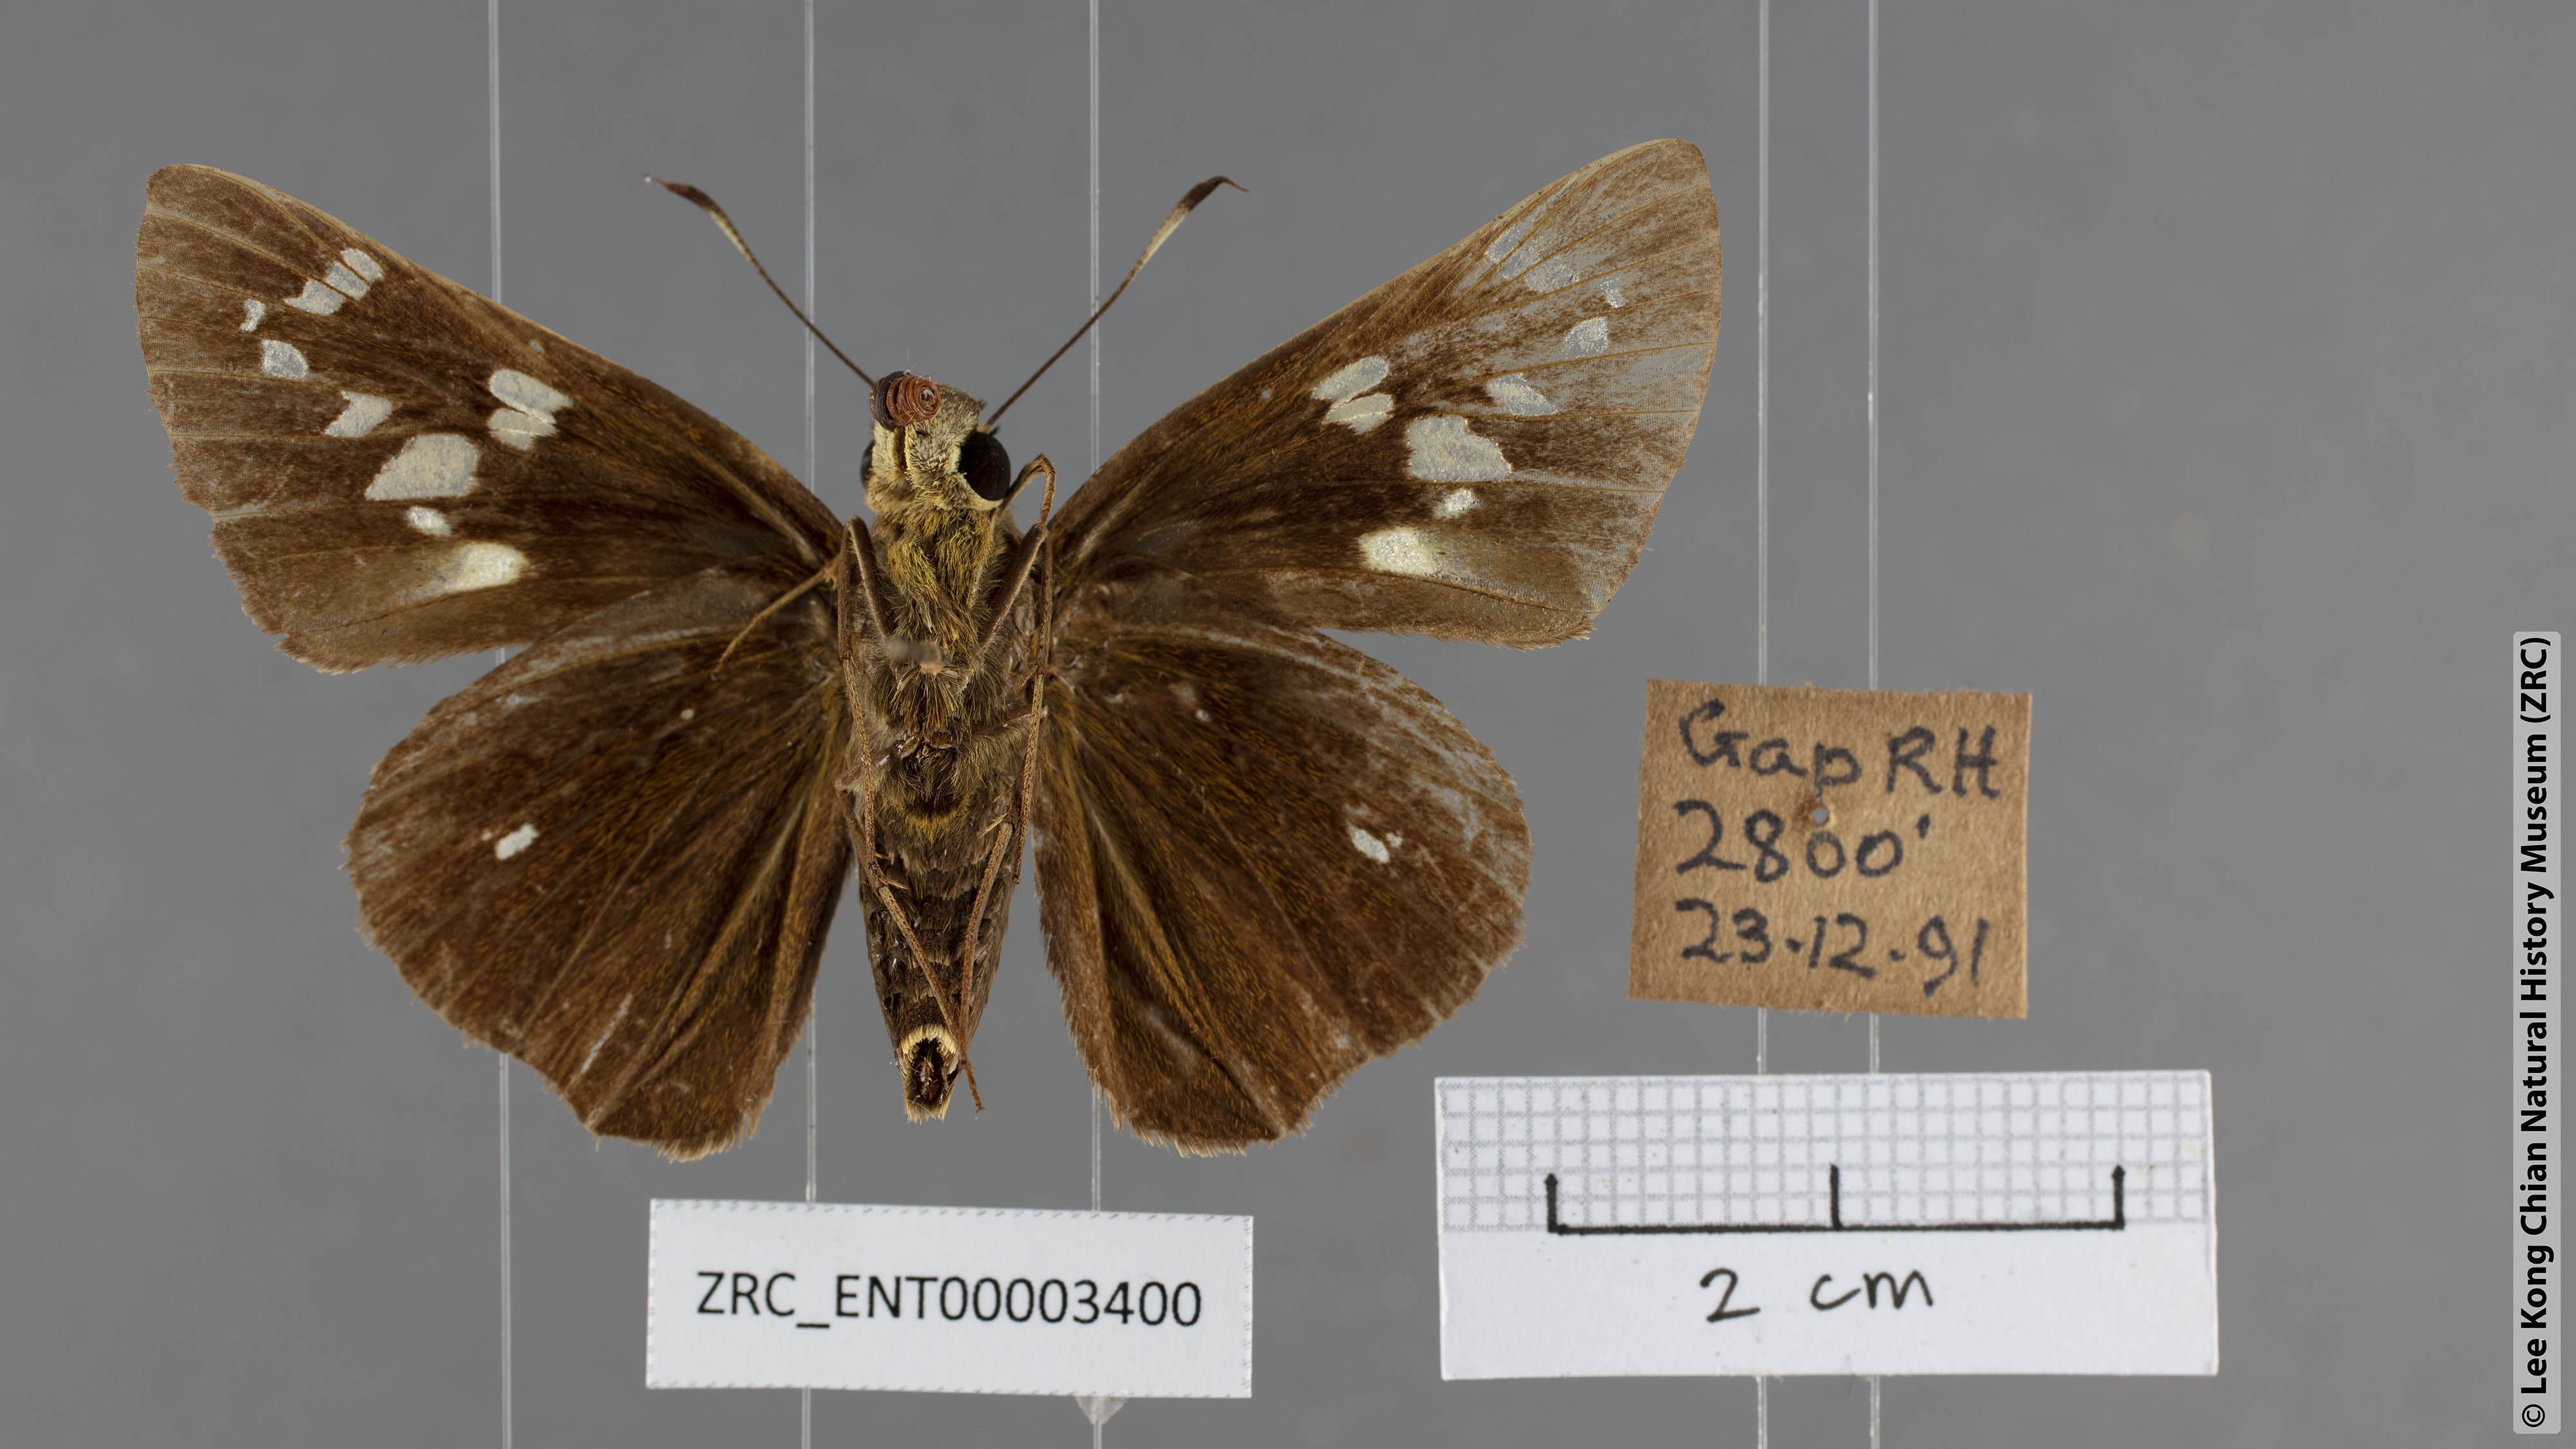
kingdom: Animalia
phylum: Arthropoda
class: Insecta
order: Lepidoptera
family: Hesperiidae
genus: Pelopidas
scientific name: Pelopidas assamensis
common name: Great swift
